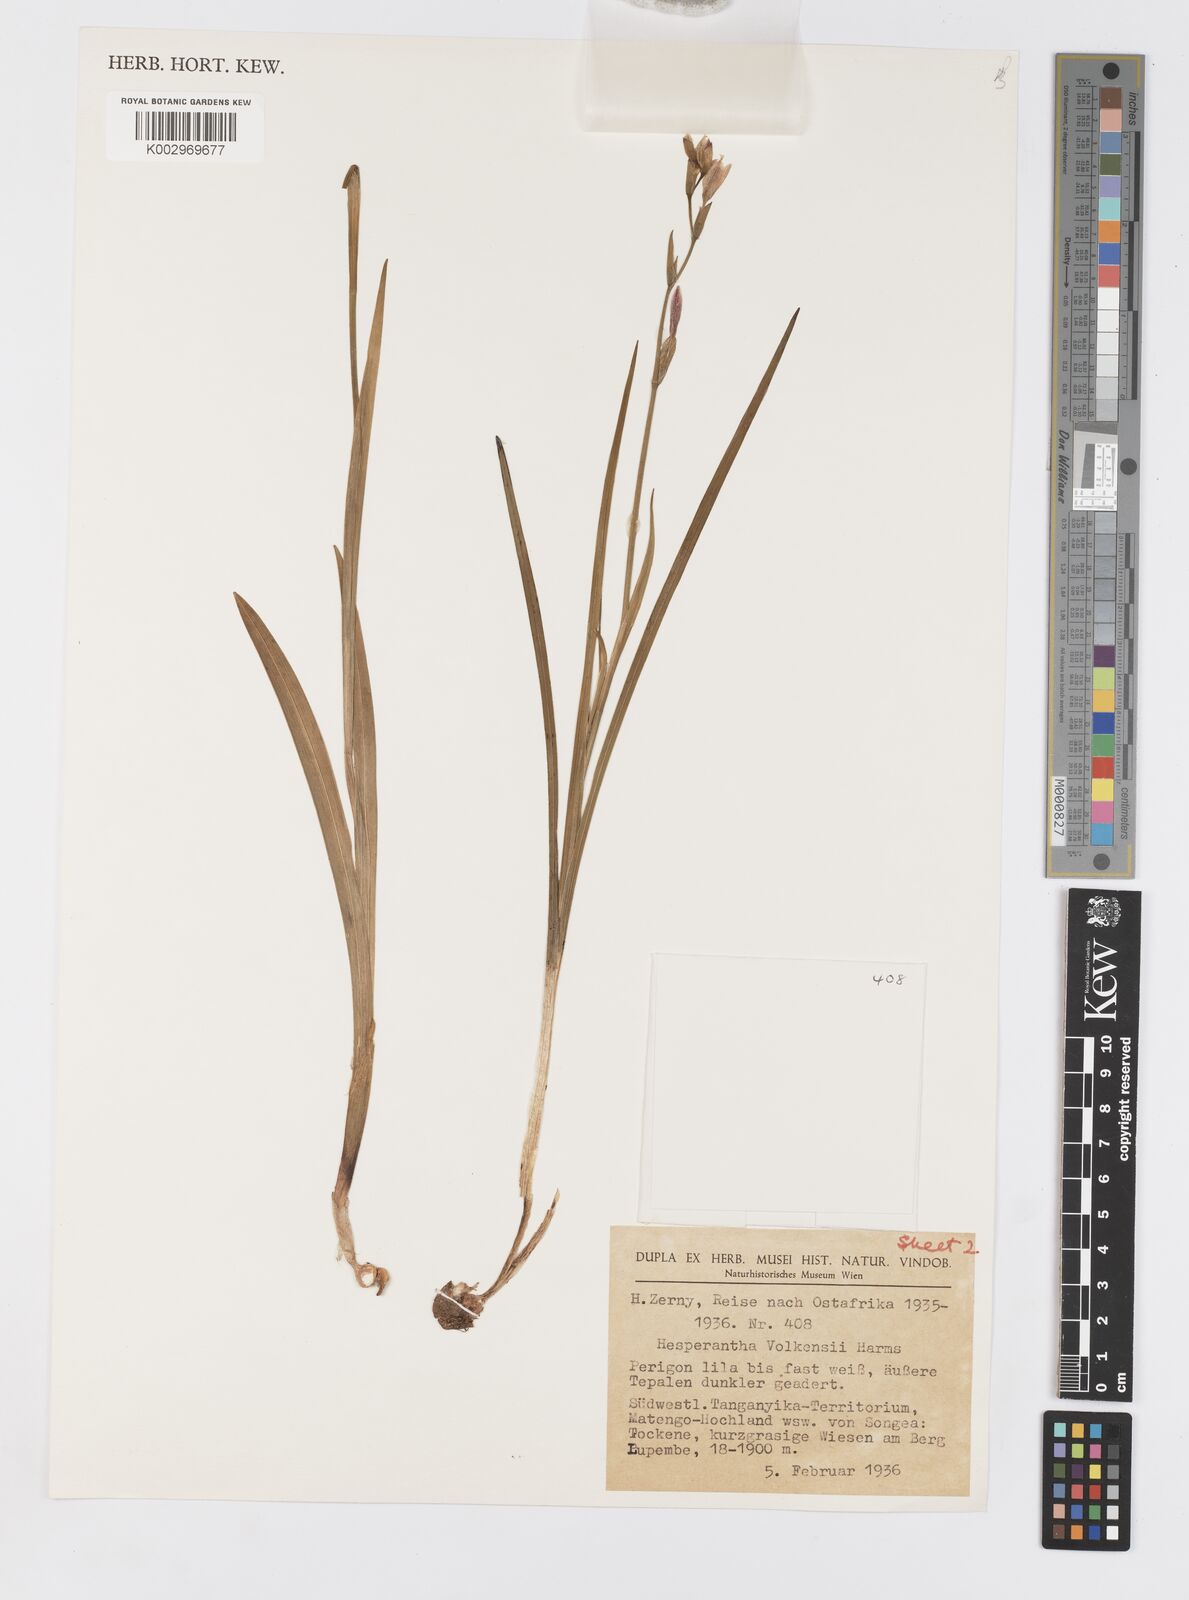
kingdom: Plantae
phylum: Tracheophyta
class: Liliopsida
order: Asparagales
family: Iridaceae
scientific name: Iridaceae
